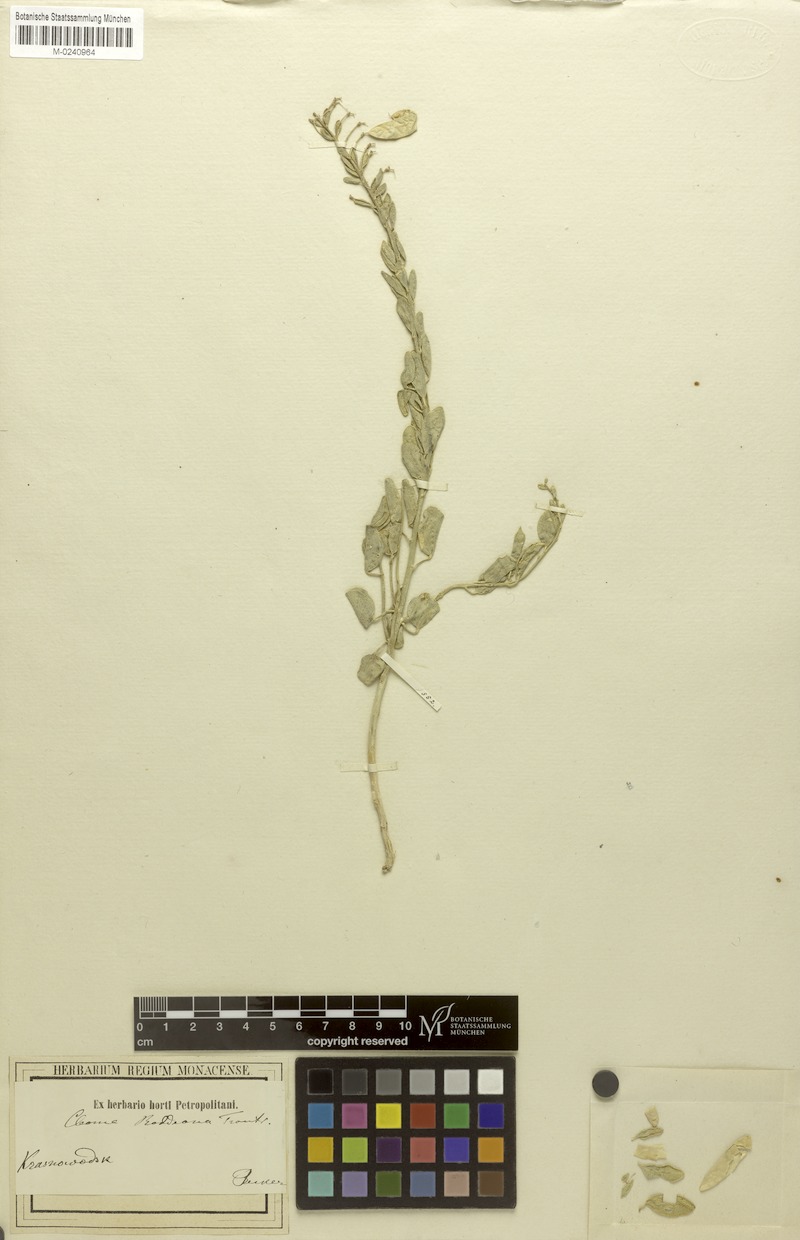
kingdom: Plantae
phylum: Tracheophyta
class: Magnoliopsida
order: Brassicales
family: Cleomaceae
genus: Cleome
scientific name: Cleome coluteoides
